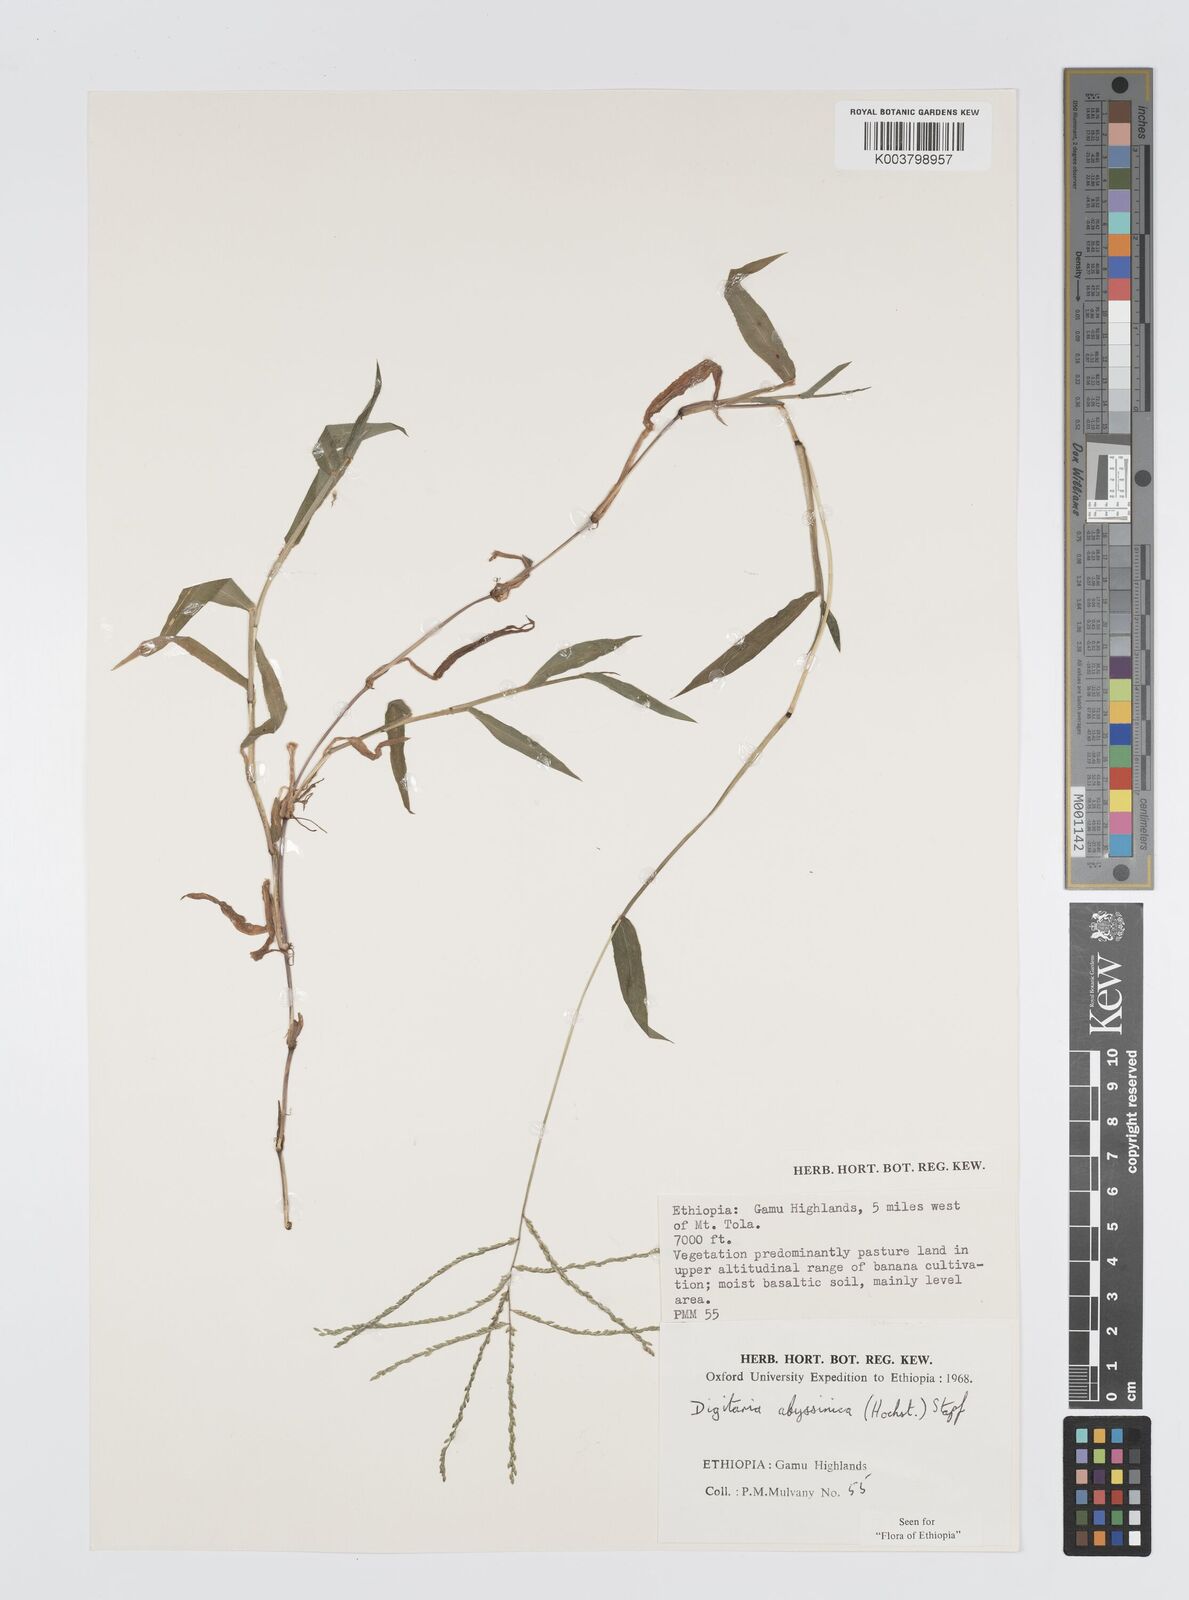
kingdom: Plantae
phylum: Tracheophyta
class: Liliopsida
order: Poales
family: Poaceae
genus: Digitaria
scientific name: Digitaria abyssinica
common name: African couchgrass
